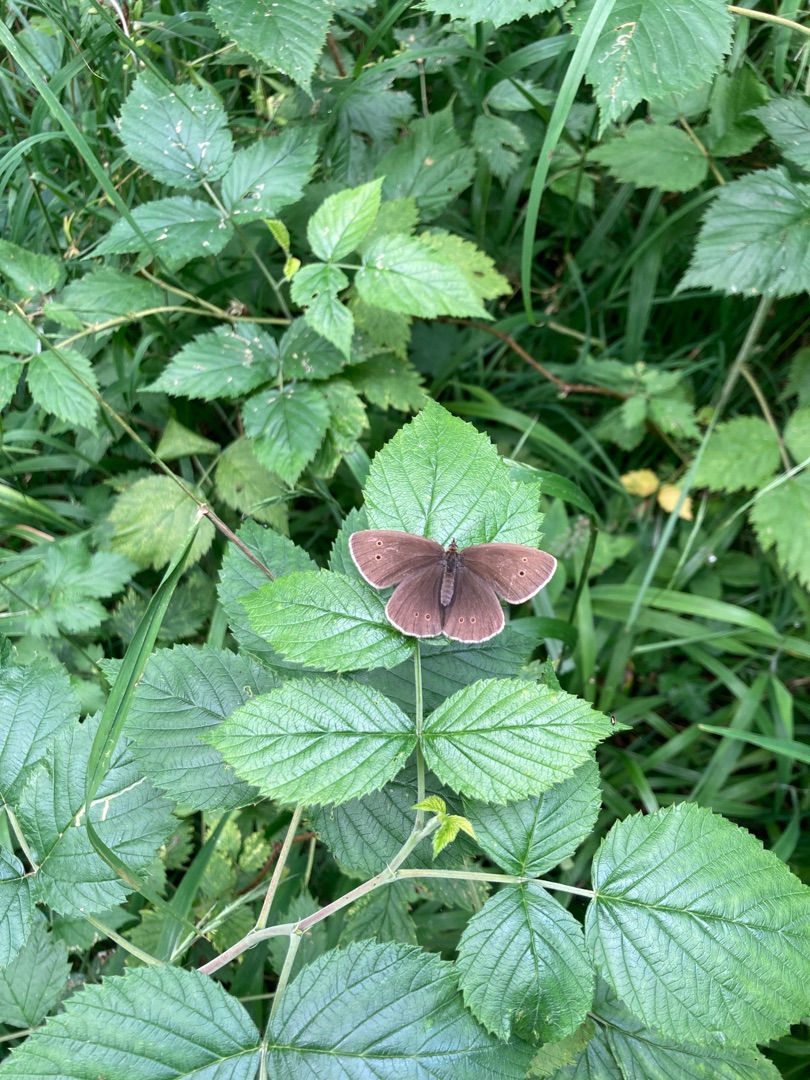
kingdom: Animalia
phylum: Arthropoda
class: Insecta
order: Lepidoptera
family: Nymphalidae
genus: Aphantopus
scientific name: Aphantopus hyperantus
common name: Engrandøje
